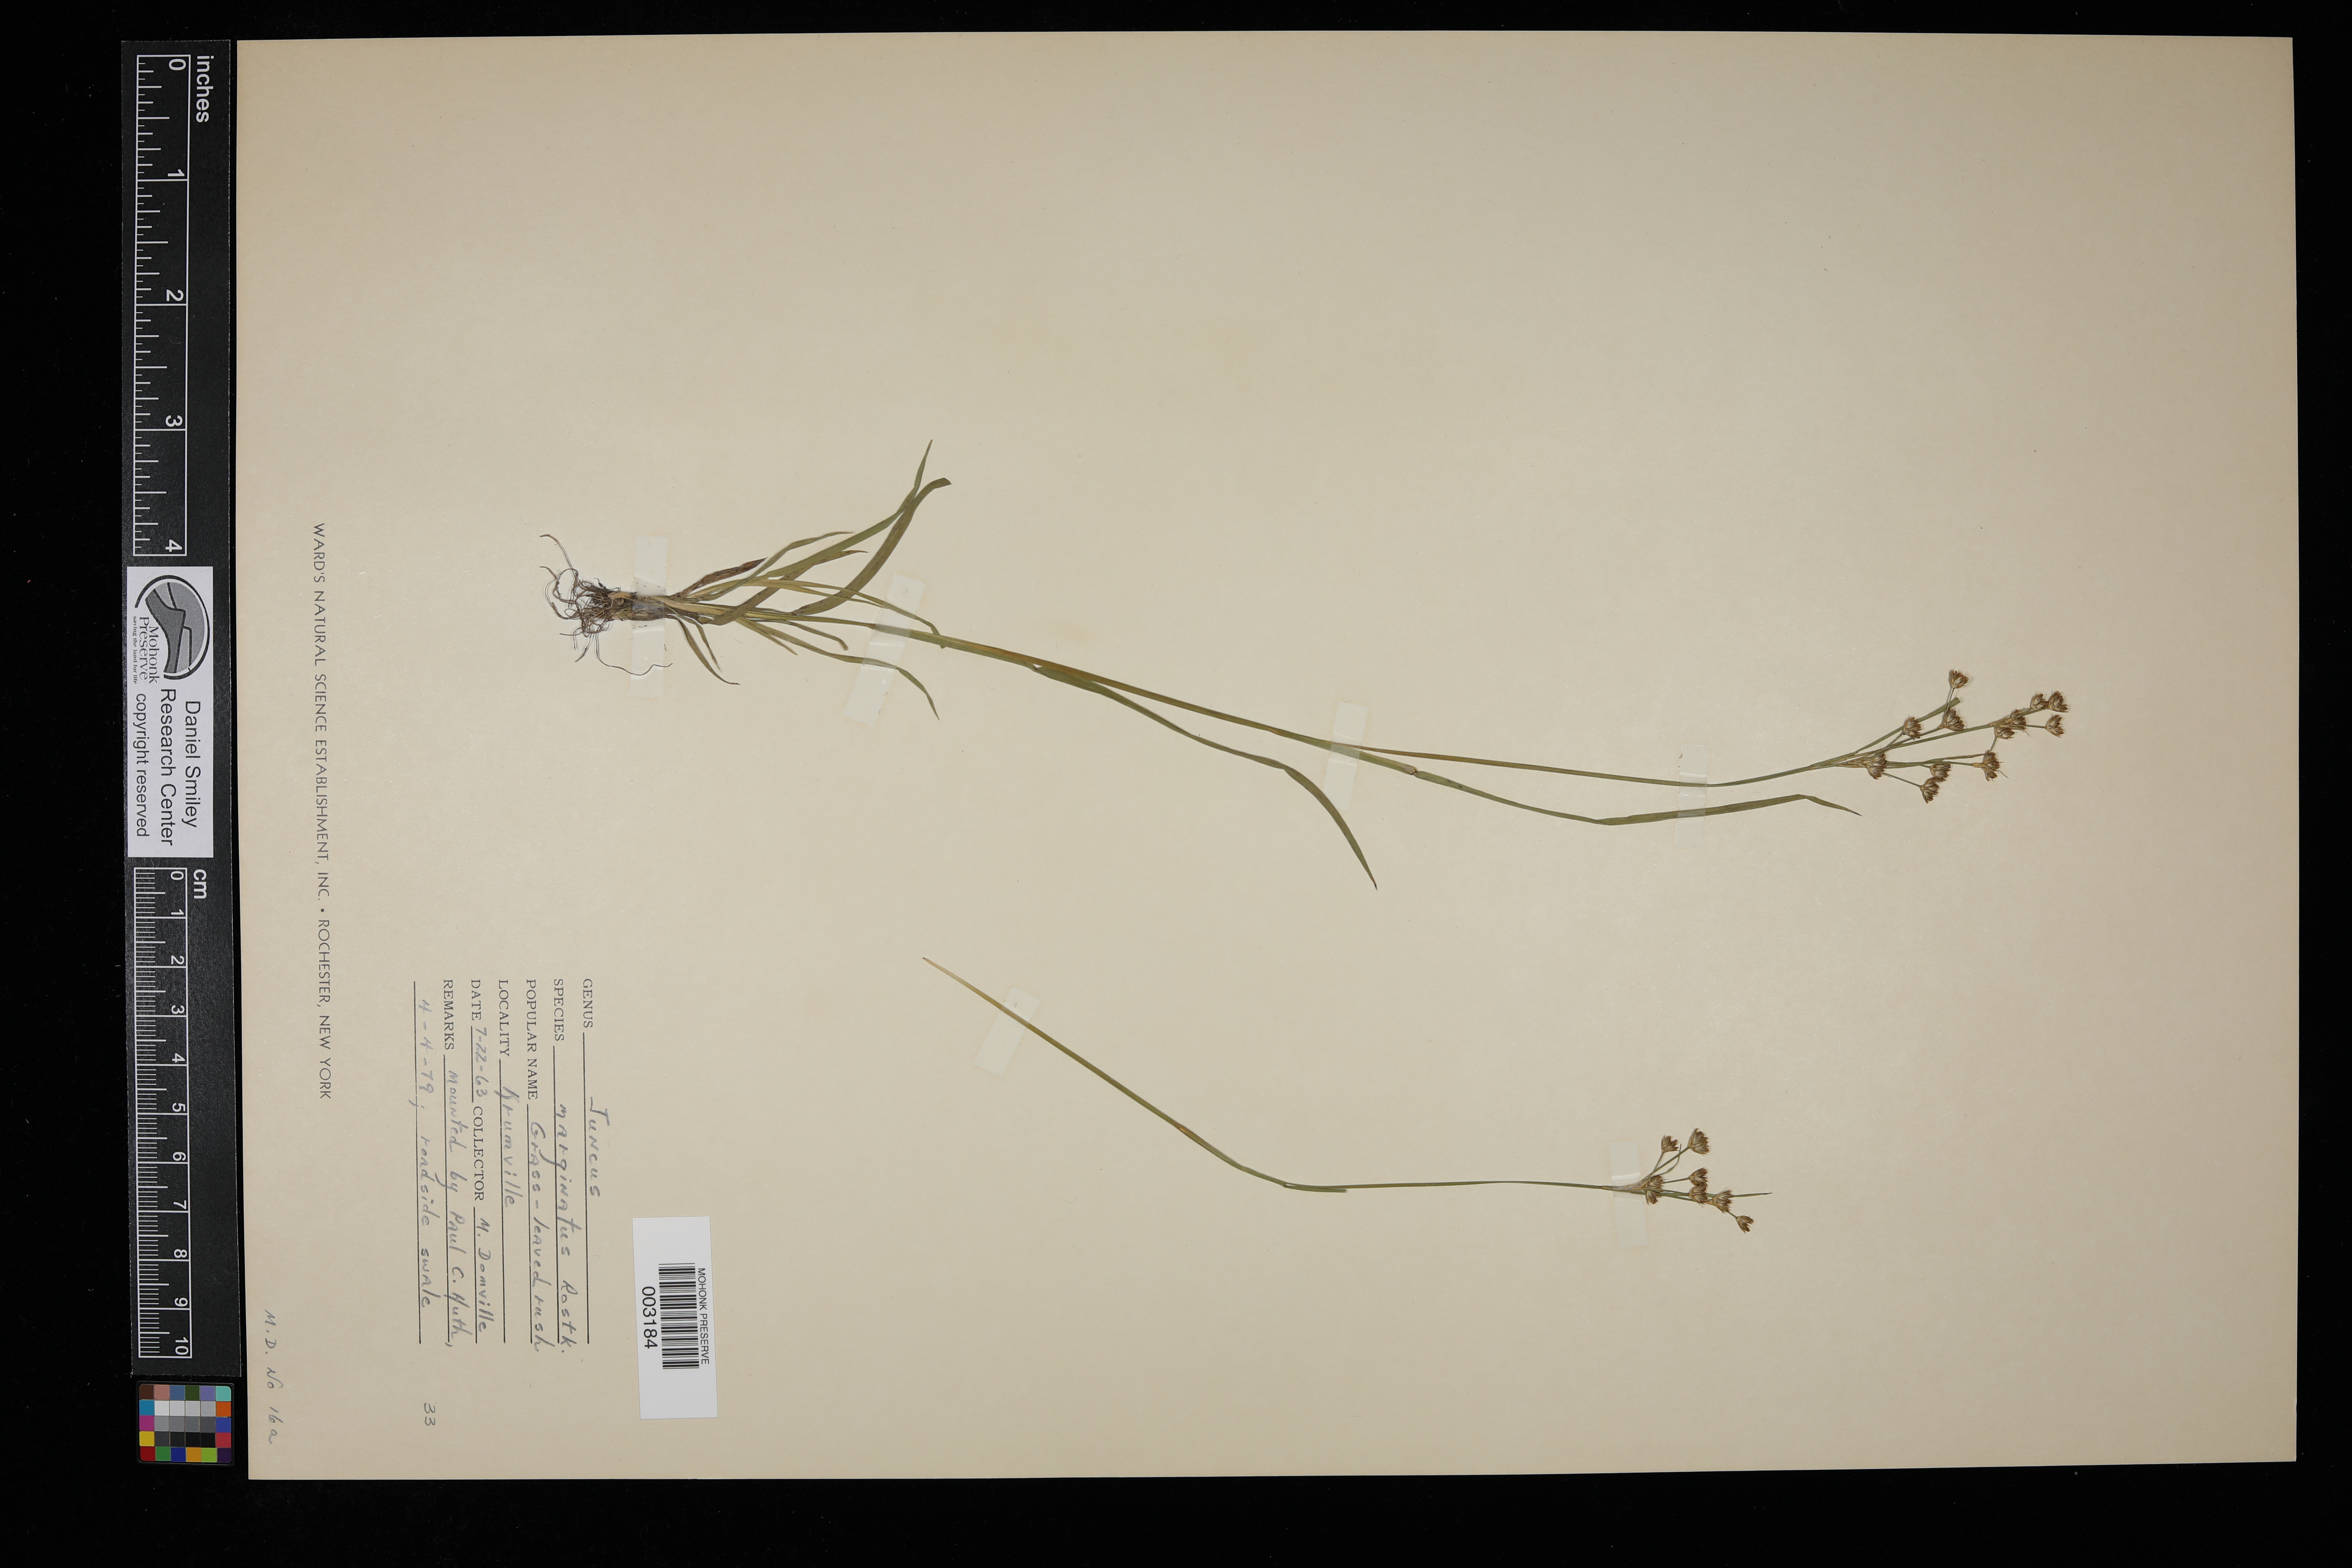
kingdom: Plantae
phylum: Tracheophyta
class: Liliopsida
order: Poales
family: Juncaceae
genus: Juncus
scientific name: Juncus marginatus
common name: Grass-leaf rush
